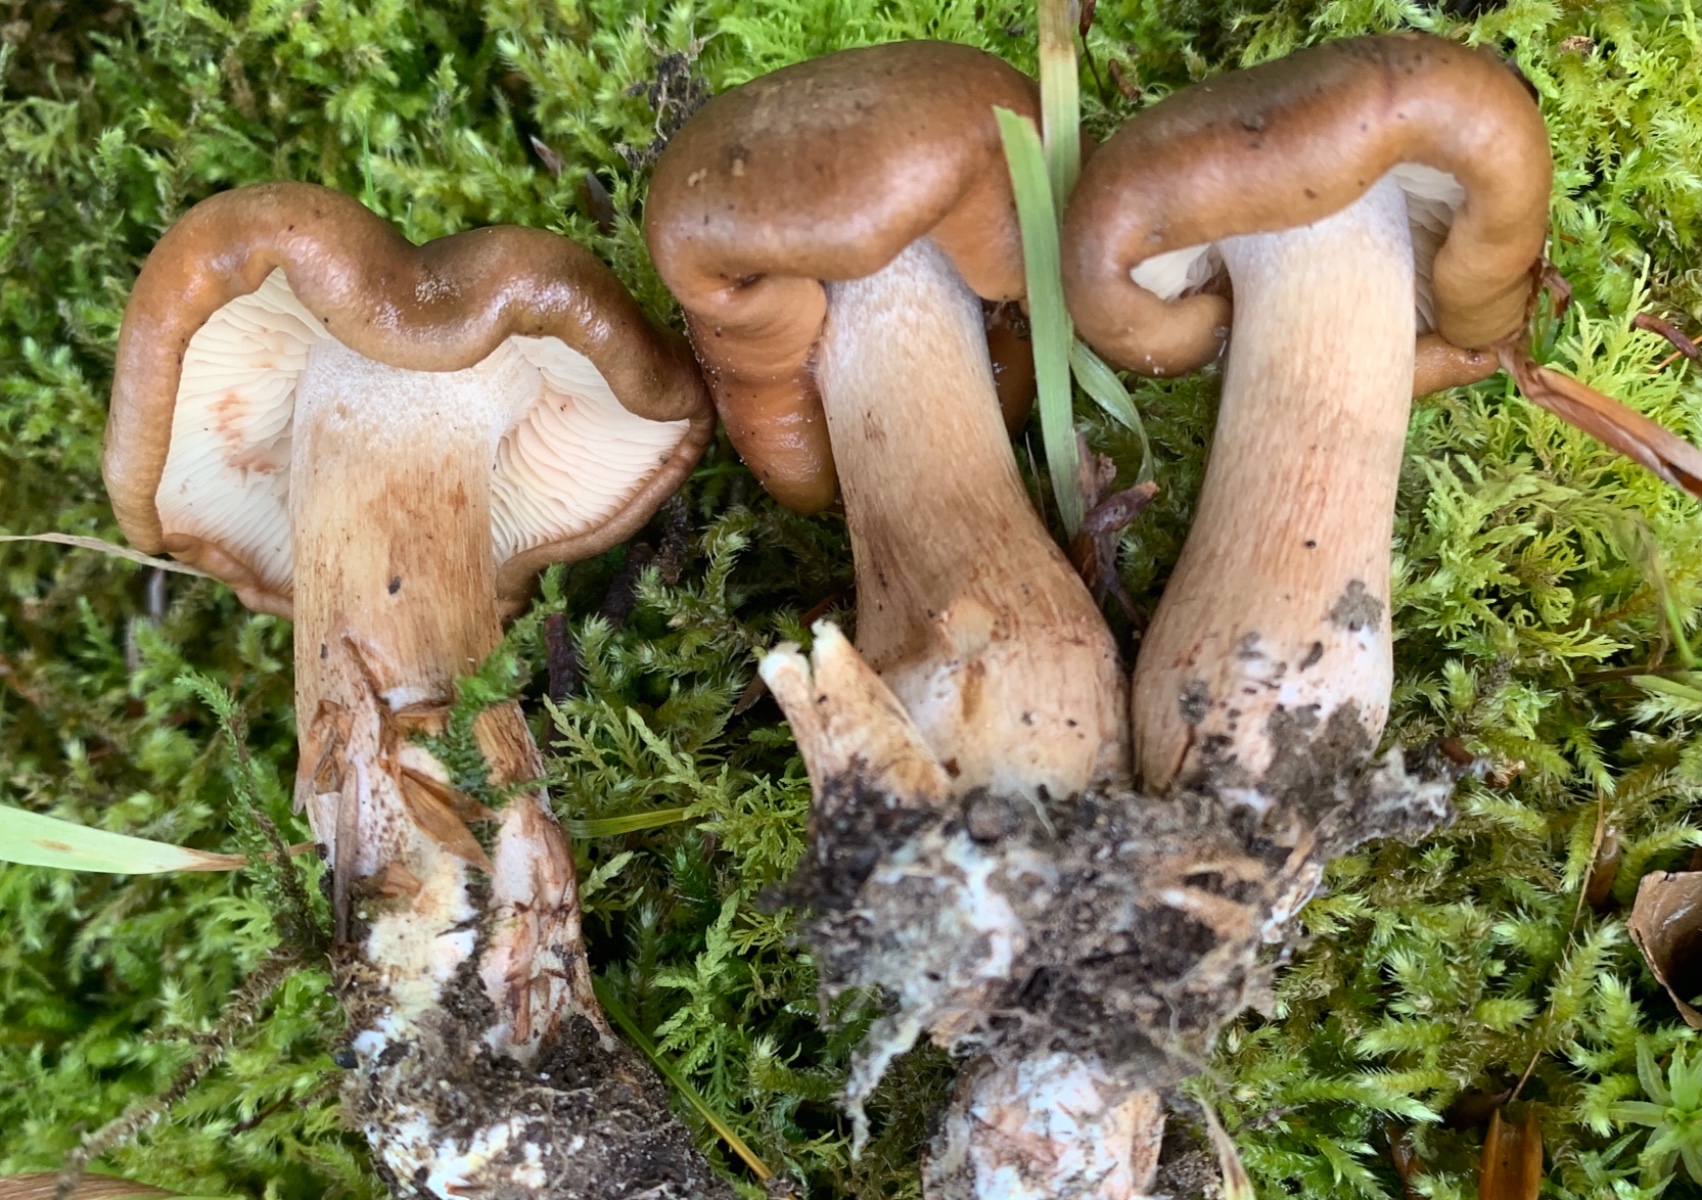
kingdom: Fungi
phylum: Basidiomycota
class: Agaricomycetes
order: Agaricales
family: Tricholomataceae
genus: Tricholoma
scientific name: Tricholoma ustale
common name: sveden ridderhat
